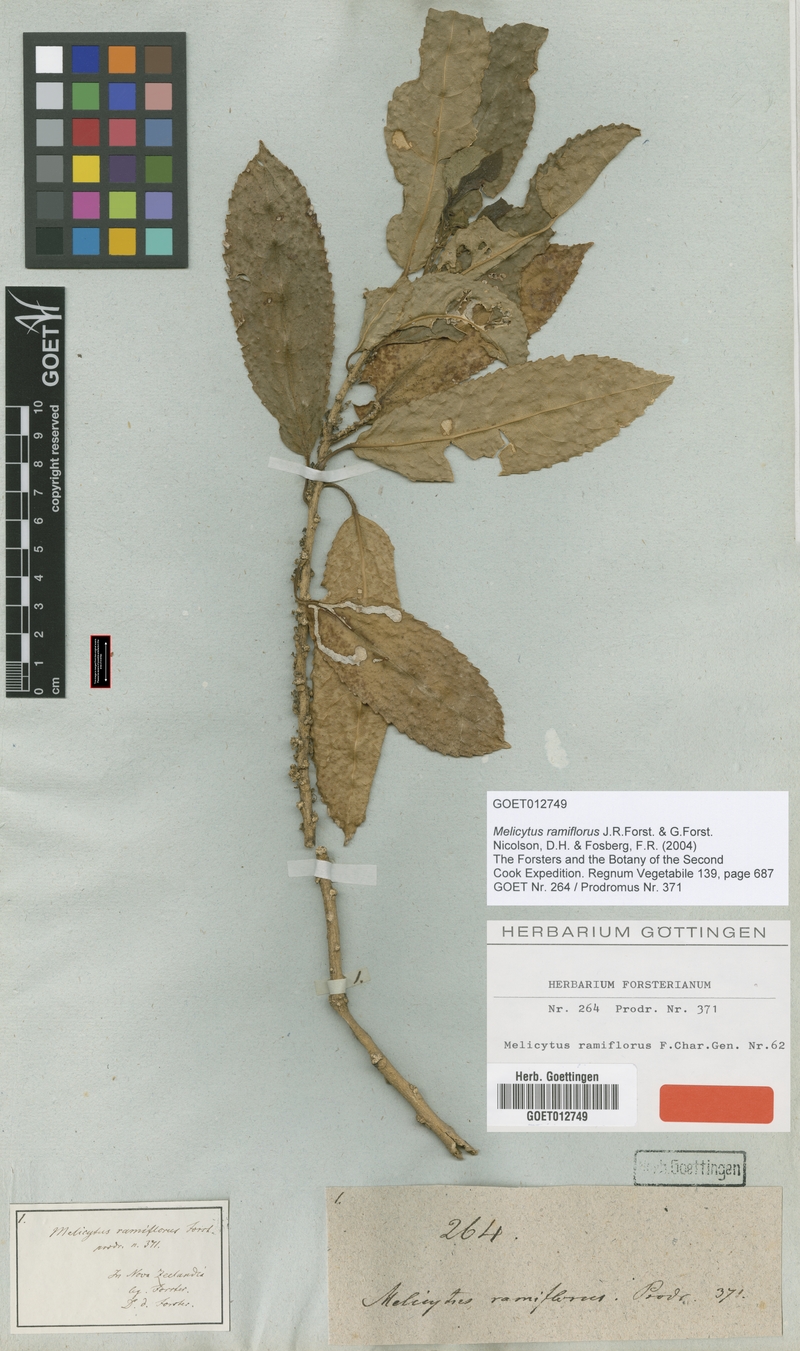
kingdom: Plantae
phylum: Tracheophyta
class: Magnoliopsida
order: Malpighiales
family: Violaceae
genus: Melicytus
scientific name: Melicytus ramiflorus
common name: Mahoe
